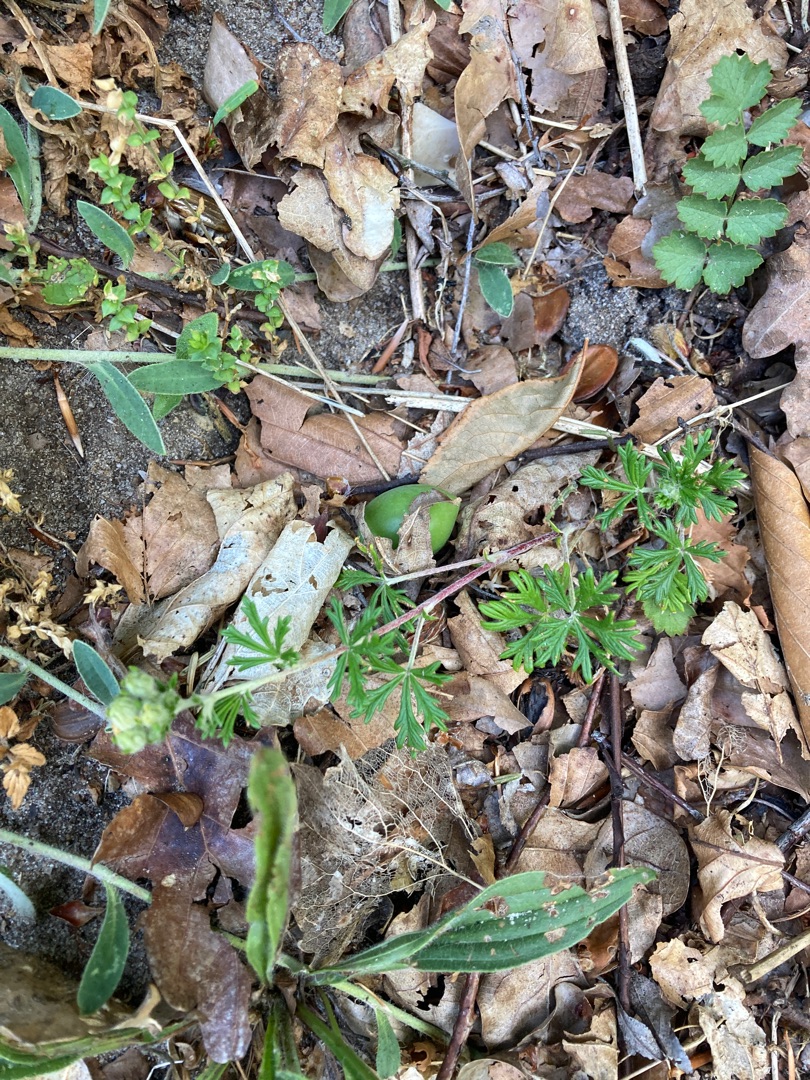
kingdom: Plantae
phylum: Tracheophyta
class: Magnoliopsida
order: Rosales
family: Rosaceae
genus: Potentilla
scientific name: Potentilla argentea
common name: Sølv-potentil
